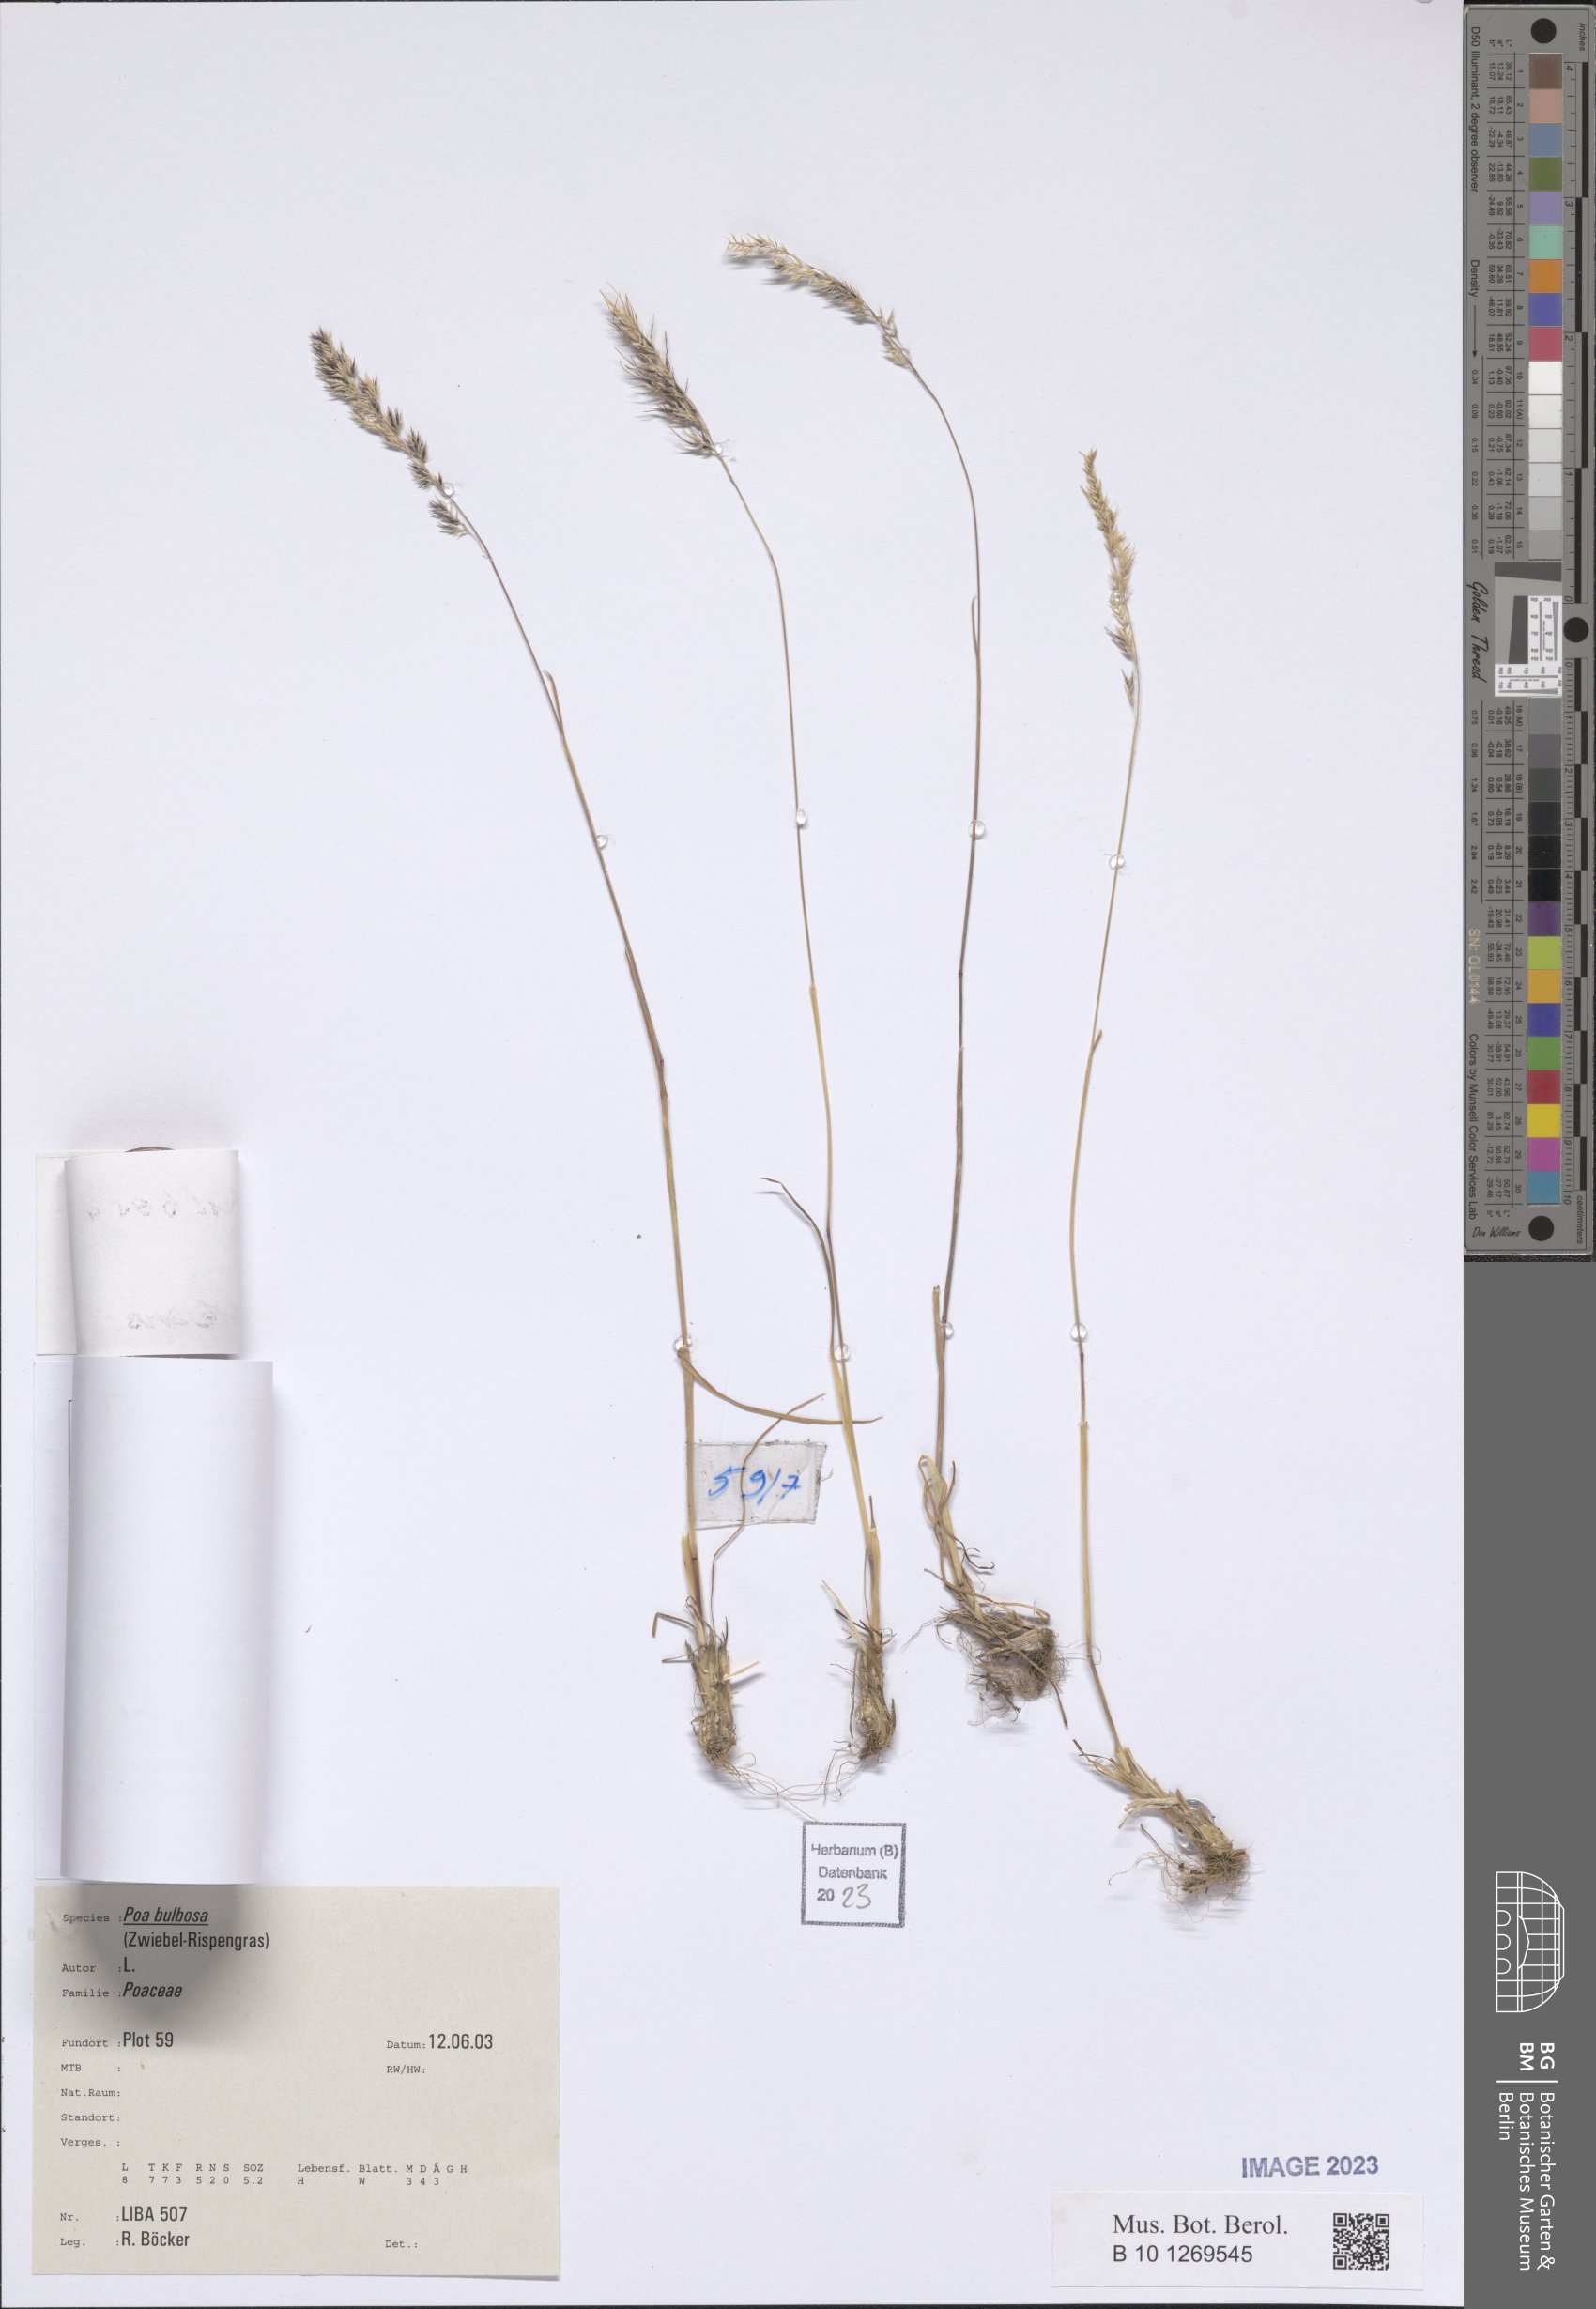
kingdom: Plantae
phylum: Tracheophyta
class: Liliopsida
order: Poales
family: Poaceae
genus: Poa
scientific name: Poa bulbosa
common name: Bulbous bluegrass
